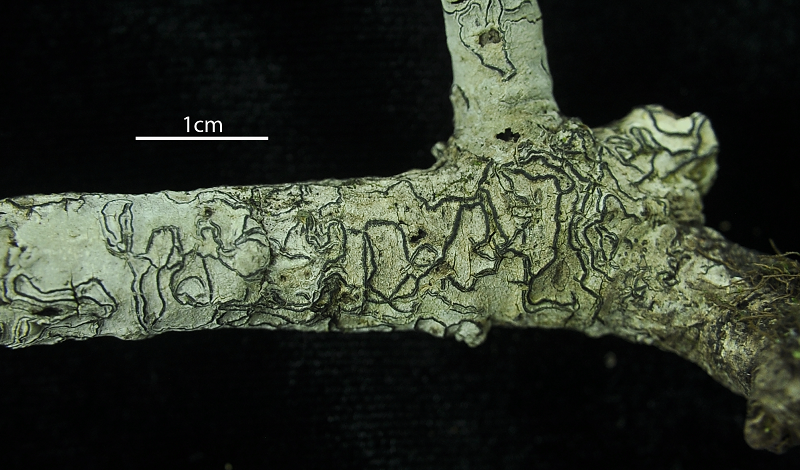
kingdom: Fungi
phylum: Ascomycota
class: Lecanoromycetes
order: Ostropales
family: Graphidaceae
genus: Graphis
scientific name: Graphis
